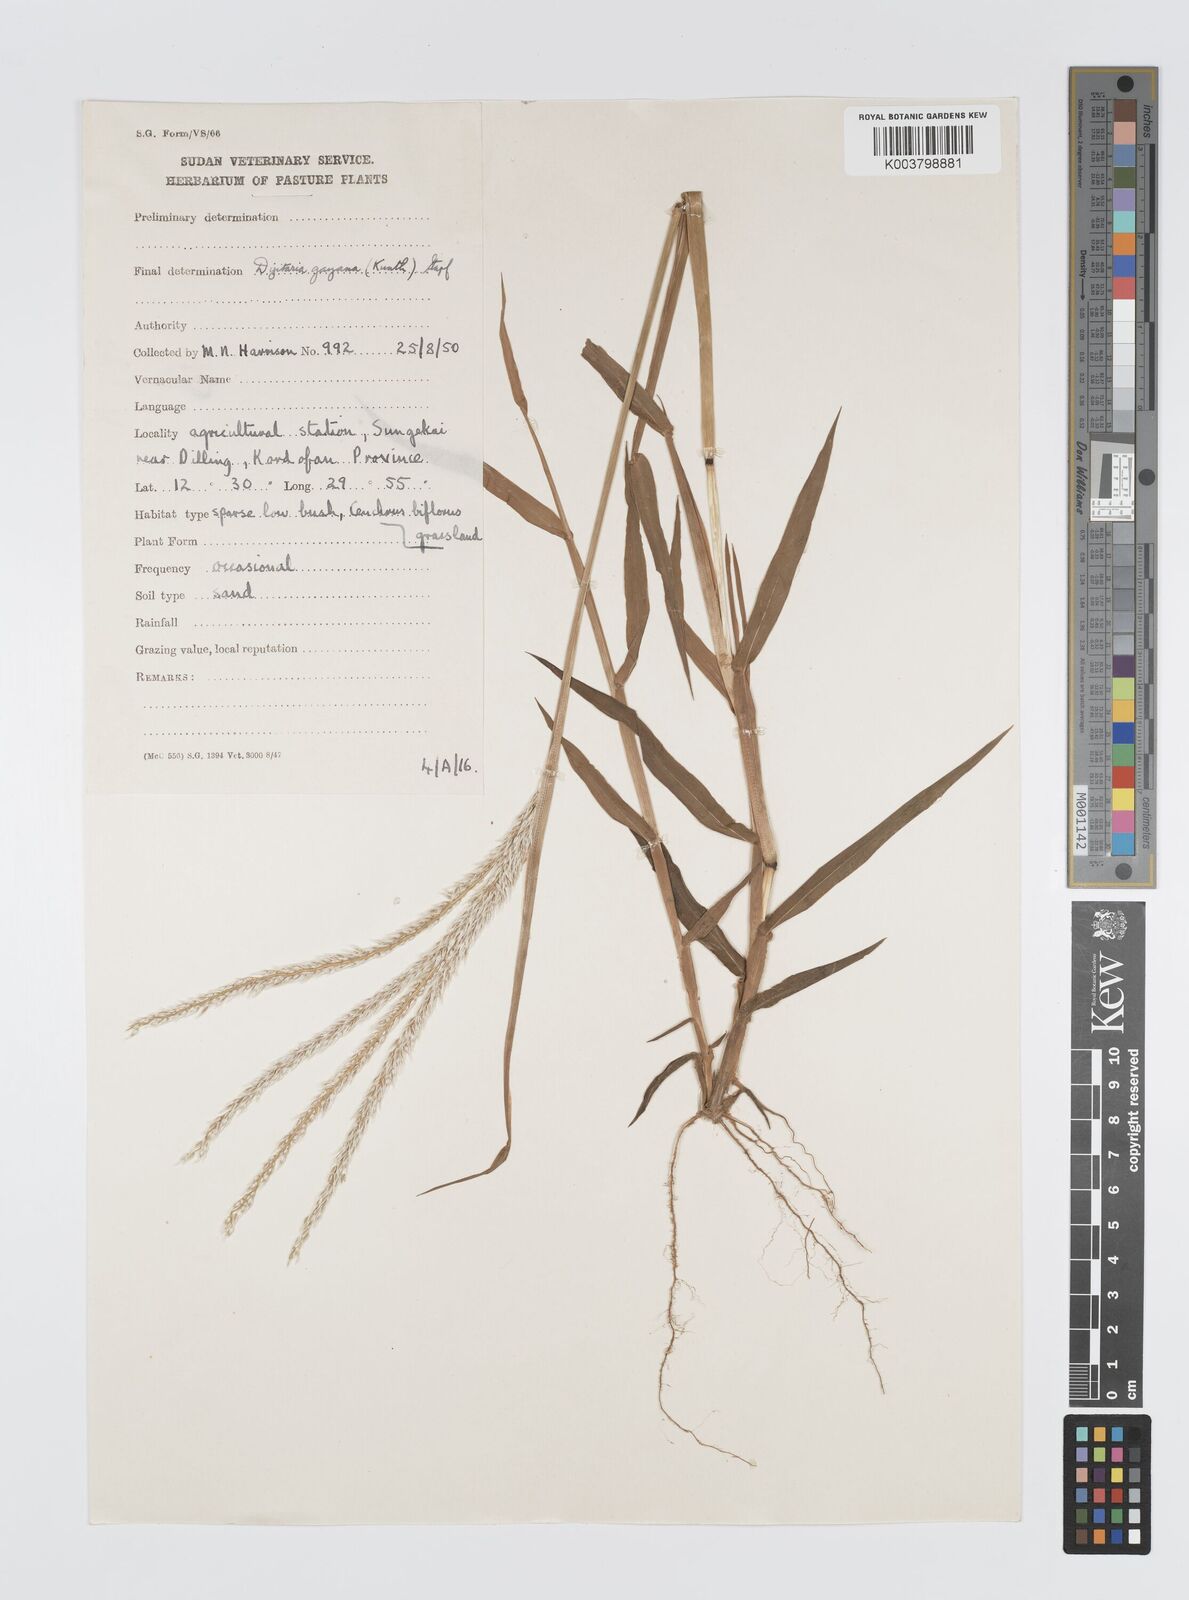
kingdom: Plantae
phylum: Tracheophyta
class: Liliopsida
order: Poales
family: Poaceae
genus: Digitaria
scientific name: Digitaria gayana
